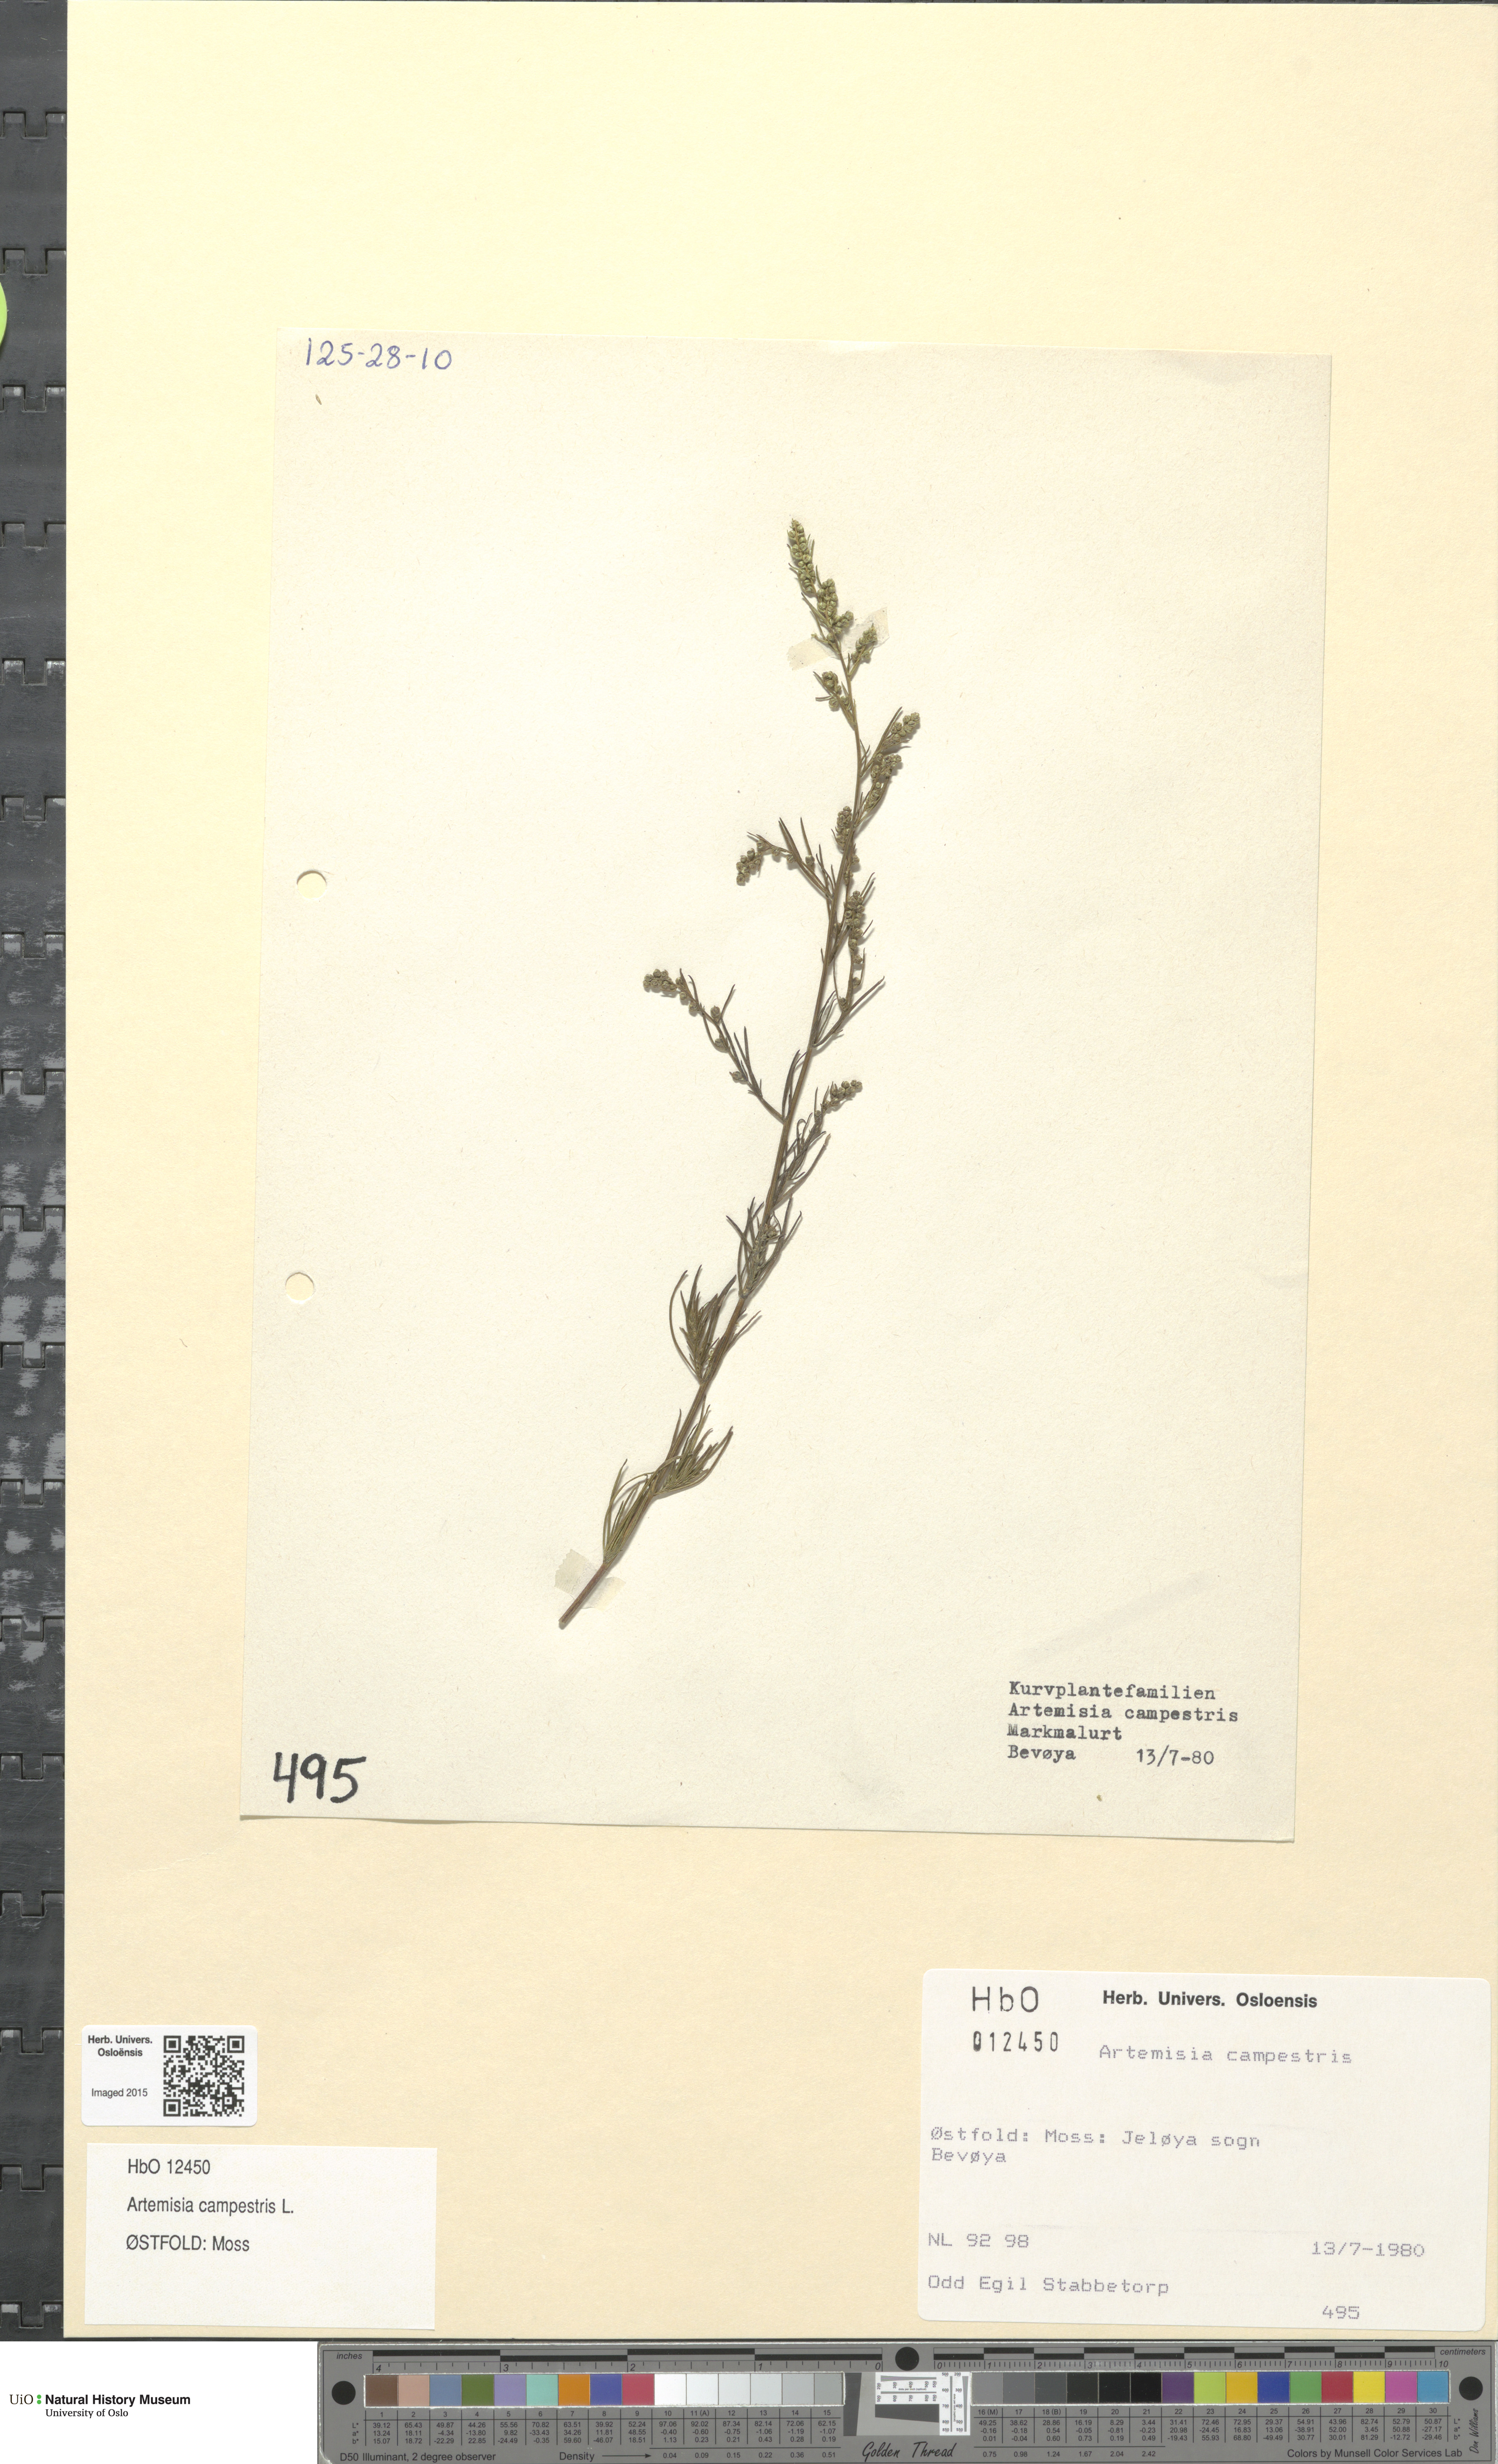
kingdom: Plantae
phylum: Tracheophyta
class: Magnoliopsida
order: Asterales
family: Asteraceae
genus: Artemisia
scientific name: Artemisia campestris
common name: Field wormwood
